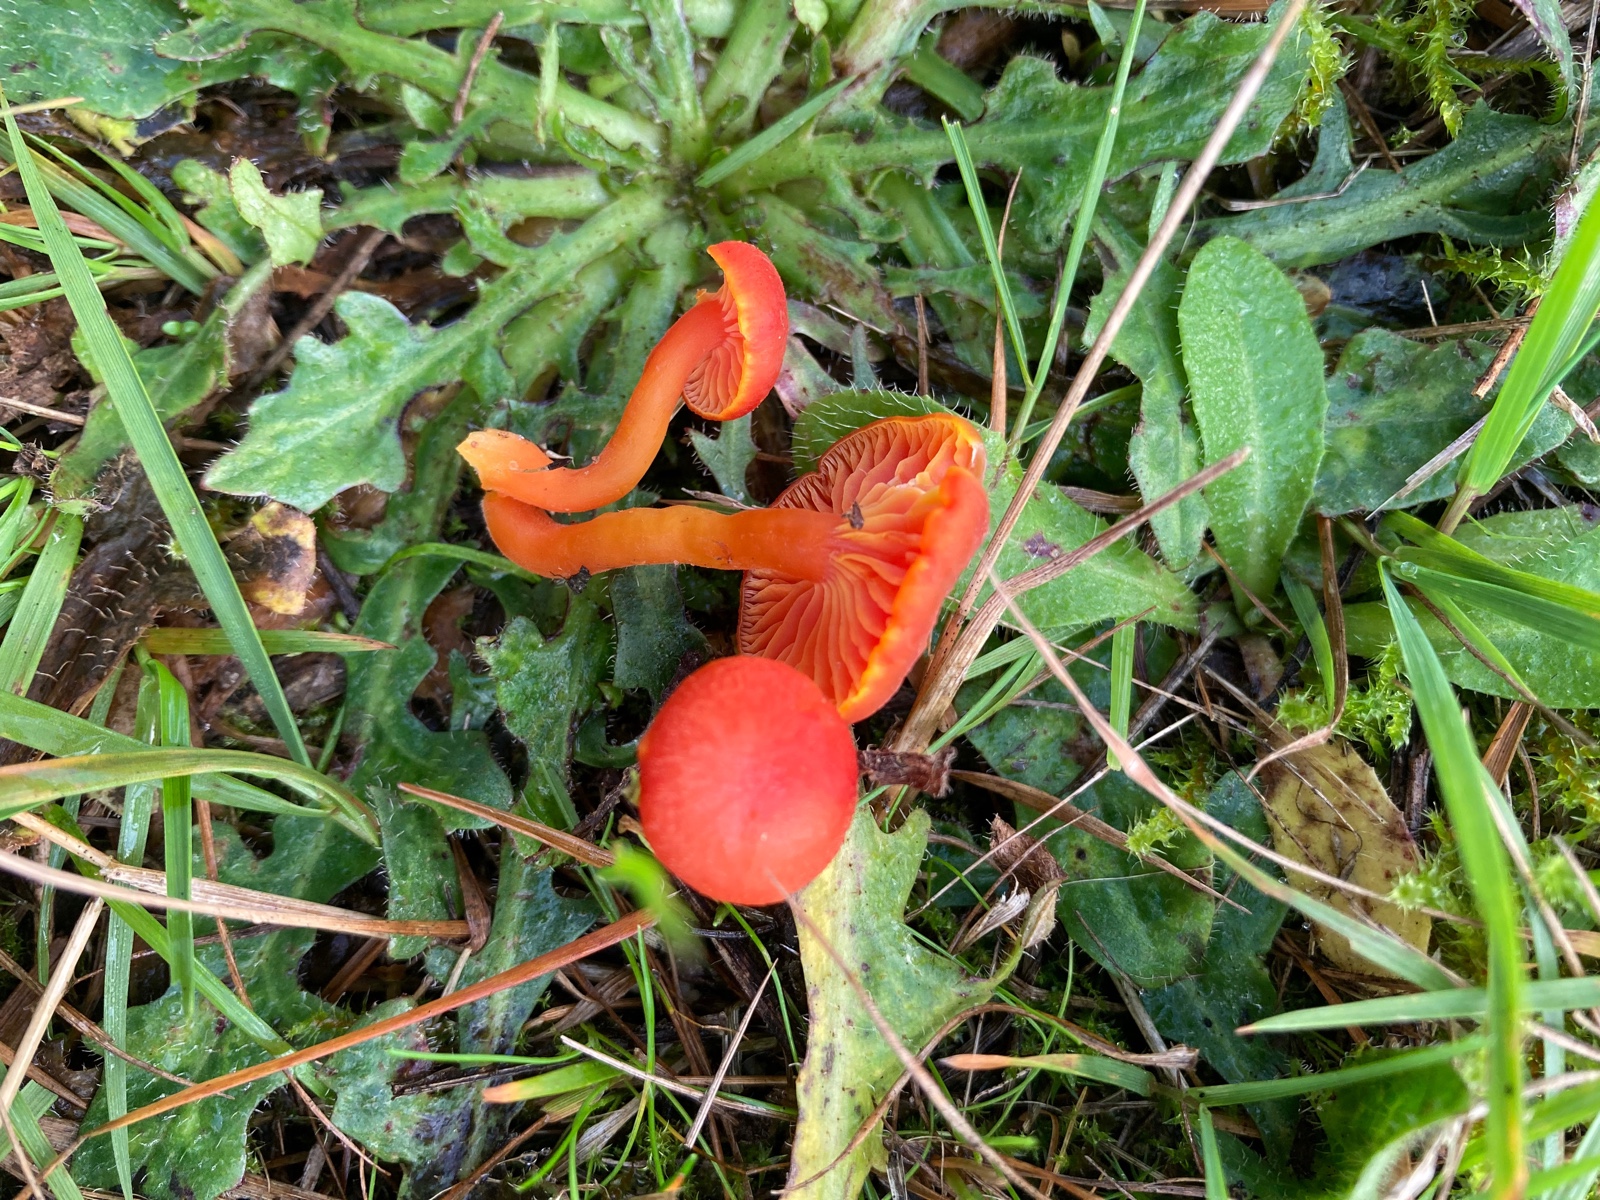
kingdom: Fungi
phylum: Basidiomycota
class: Agaricomycetes
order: Agaricales
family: Hygrophoraceae
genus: Hygrocybe
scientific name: Hygrocybe miniata
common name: mønje-vokshat
